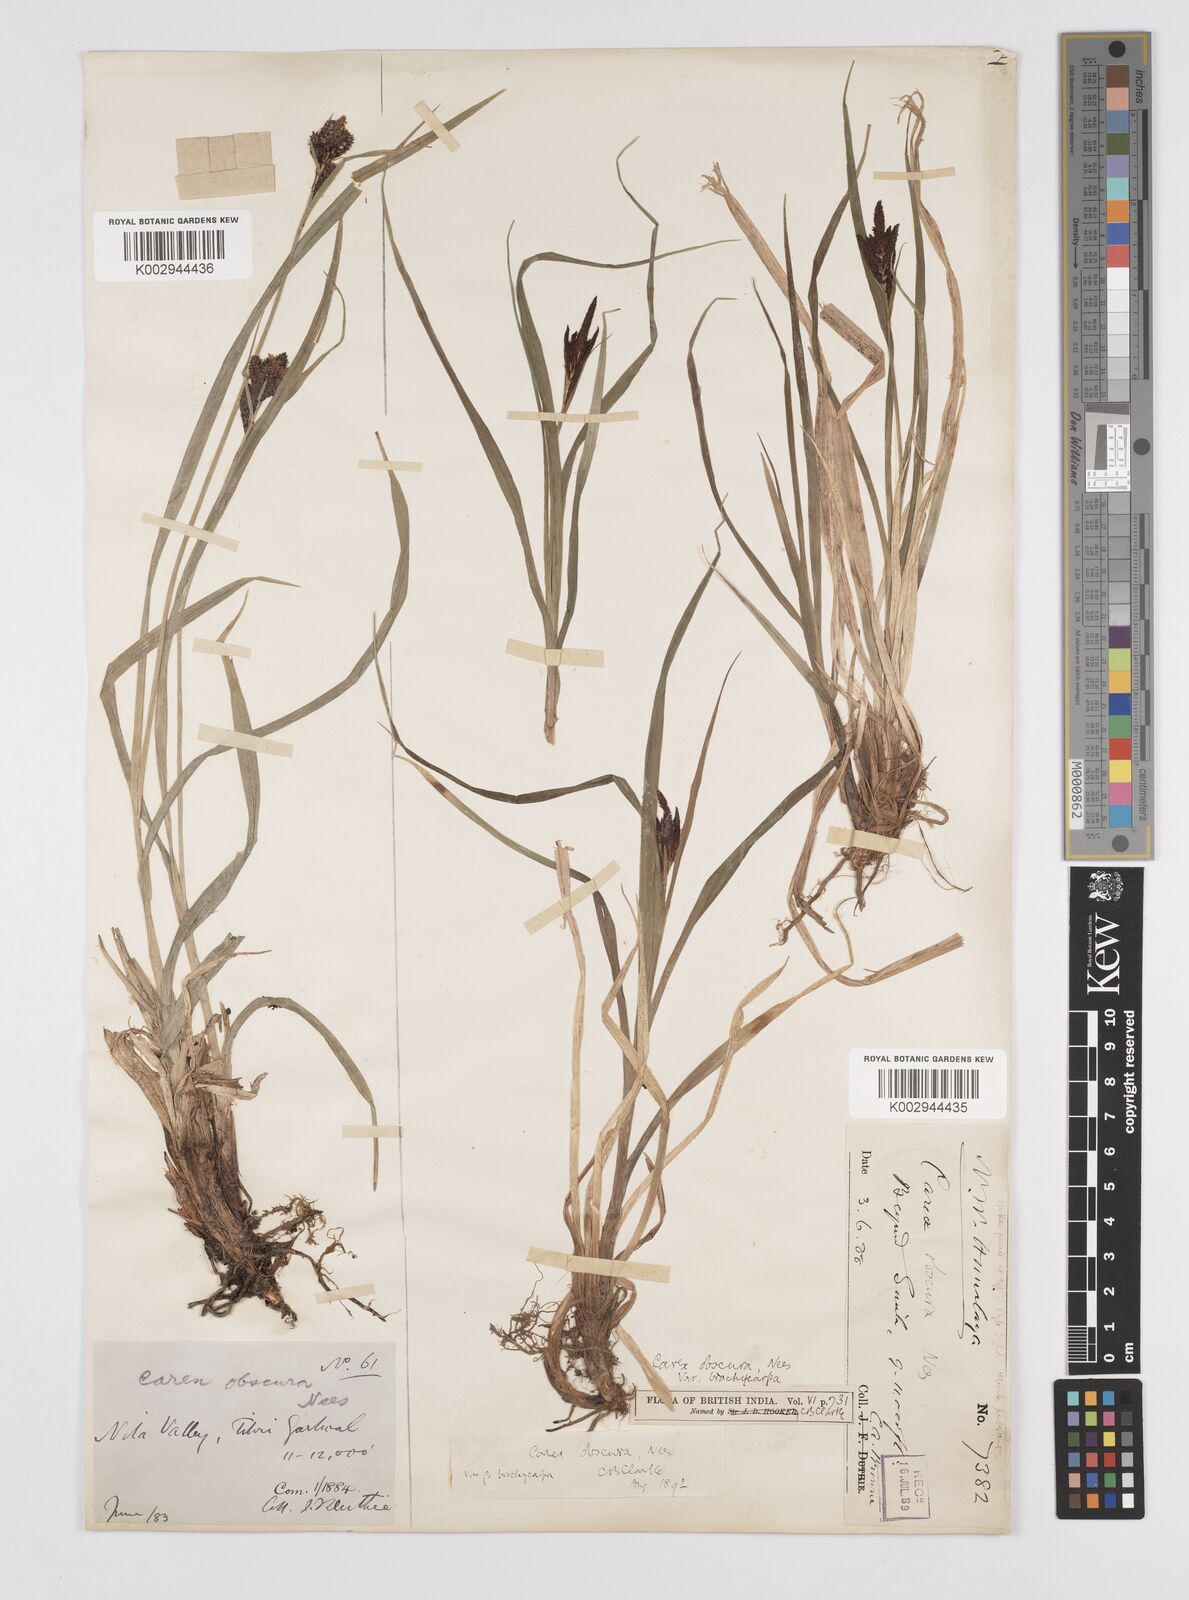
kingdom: Plantae
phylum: Tracheophyta
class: Liliopsida
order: Poales
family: Cyperaceae
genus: Carex
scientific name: Carex obscura
